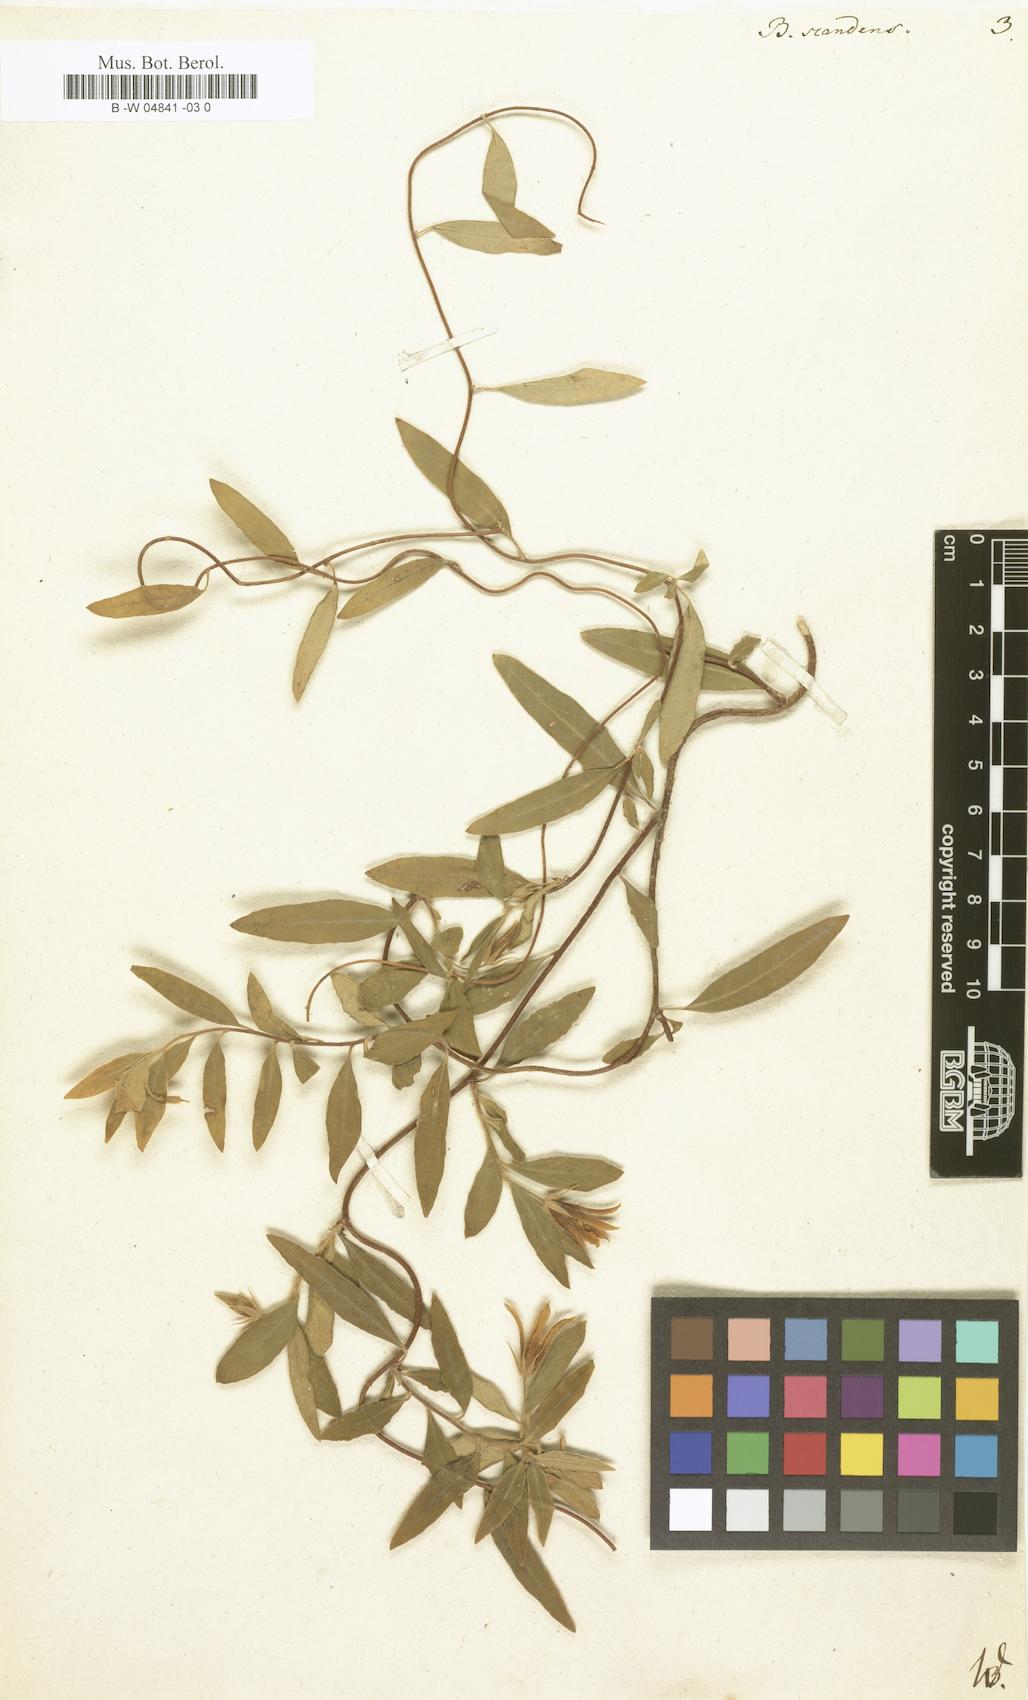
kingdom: Plantae
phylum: Tracheophyta
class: Magnoliopsida
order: Apiales
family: Pittosporaceae
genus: Billardiera
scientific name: Billardiera scandens
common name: Apple-berry
